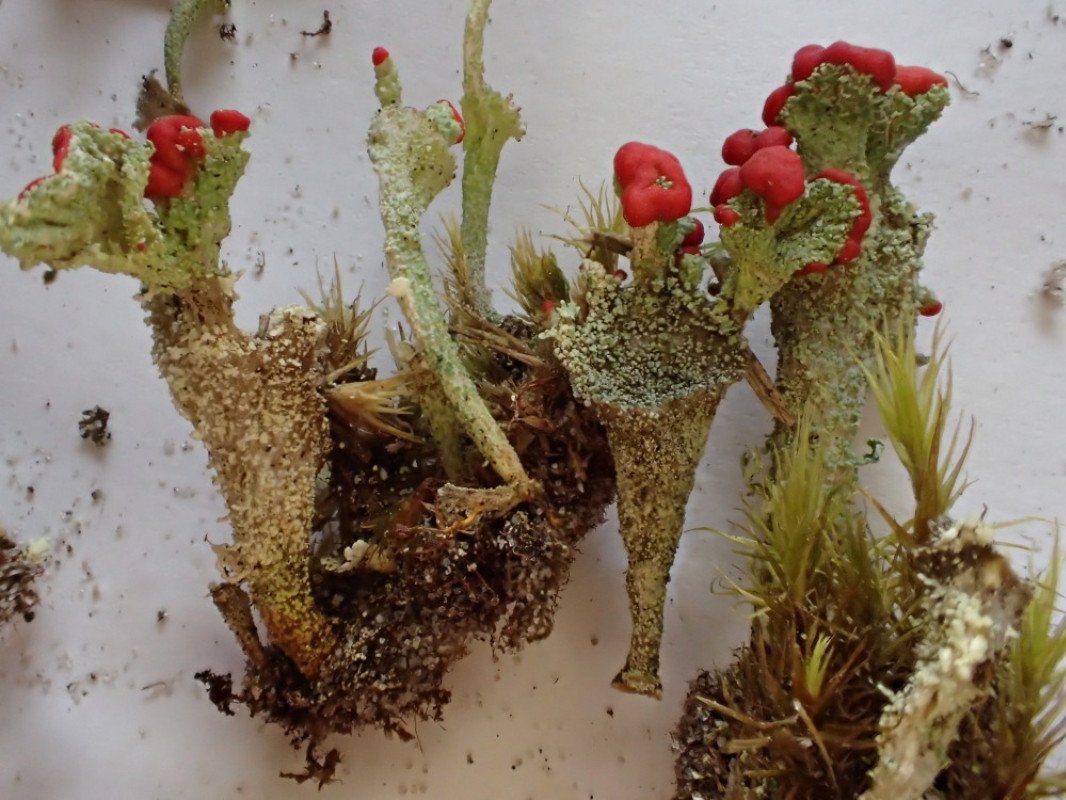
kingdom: Fungi
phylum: Ascomycota
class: Lecanoromycetes
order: Lecanorales
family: Cladoniaceae
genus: Cladonia
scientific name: Cladonia diversa
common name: rød bægerlav
